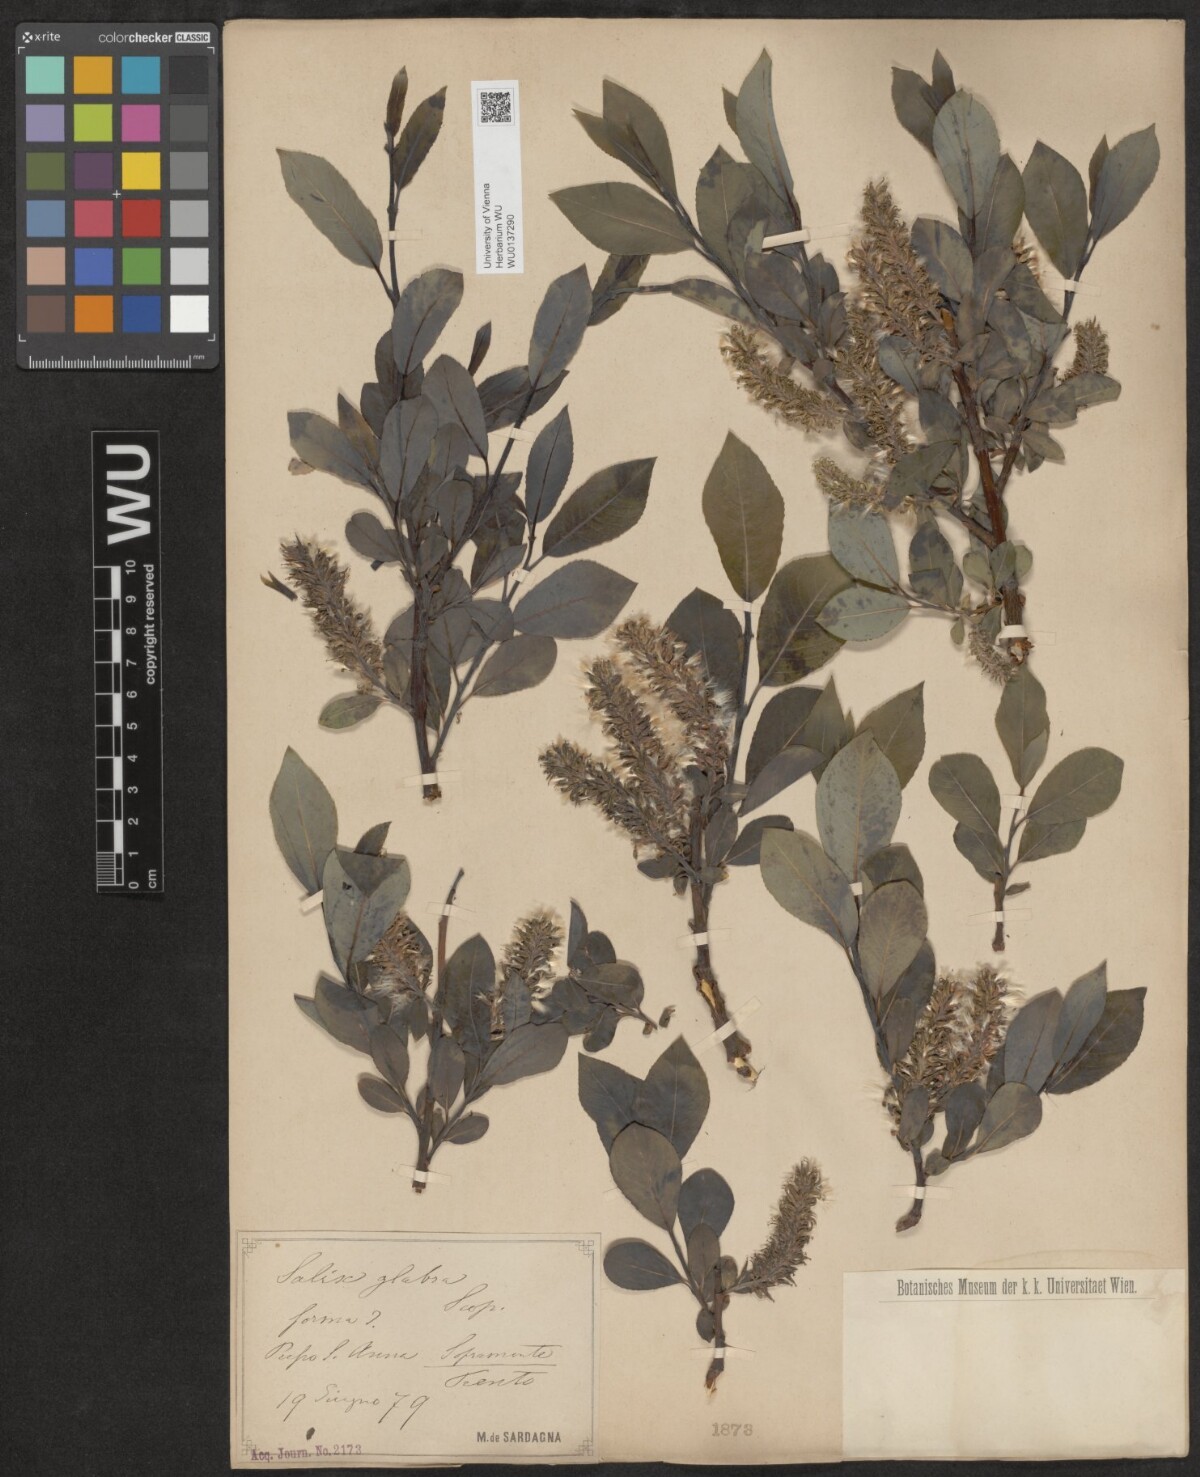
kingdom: Plantae
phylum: Tracheophyta
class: Magnoliopsida
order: Malpighiales
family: Salicaceae
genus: Salix
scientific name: Salix glabra
